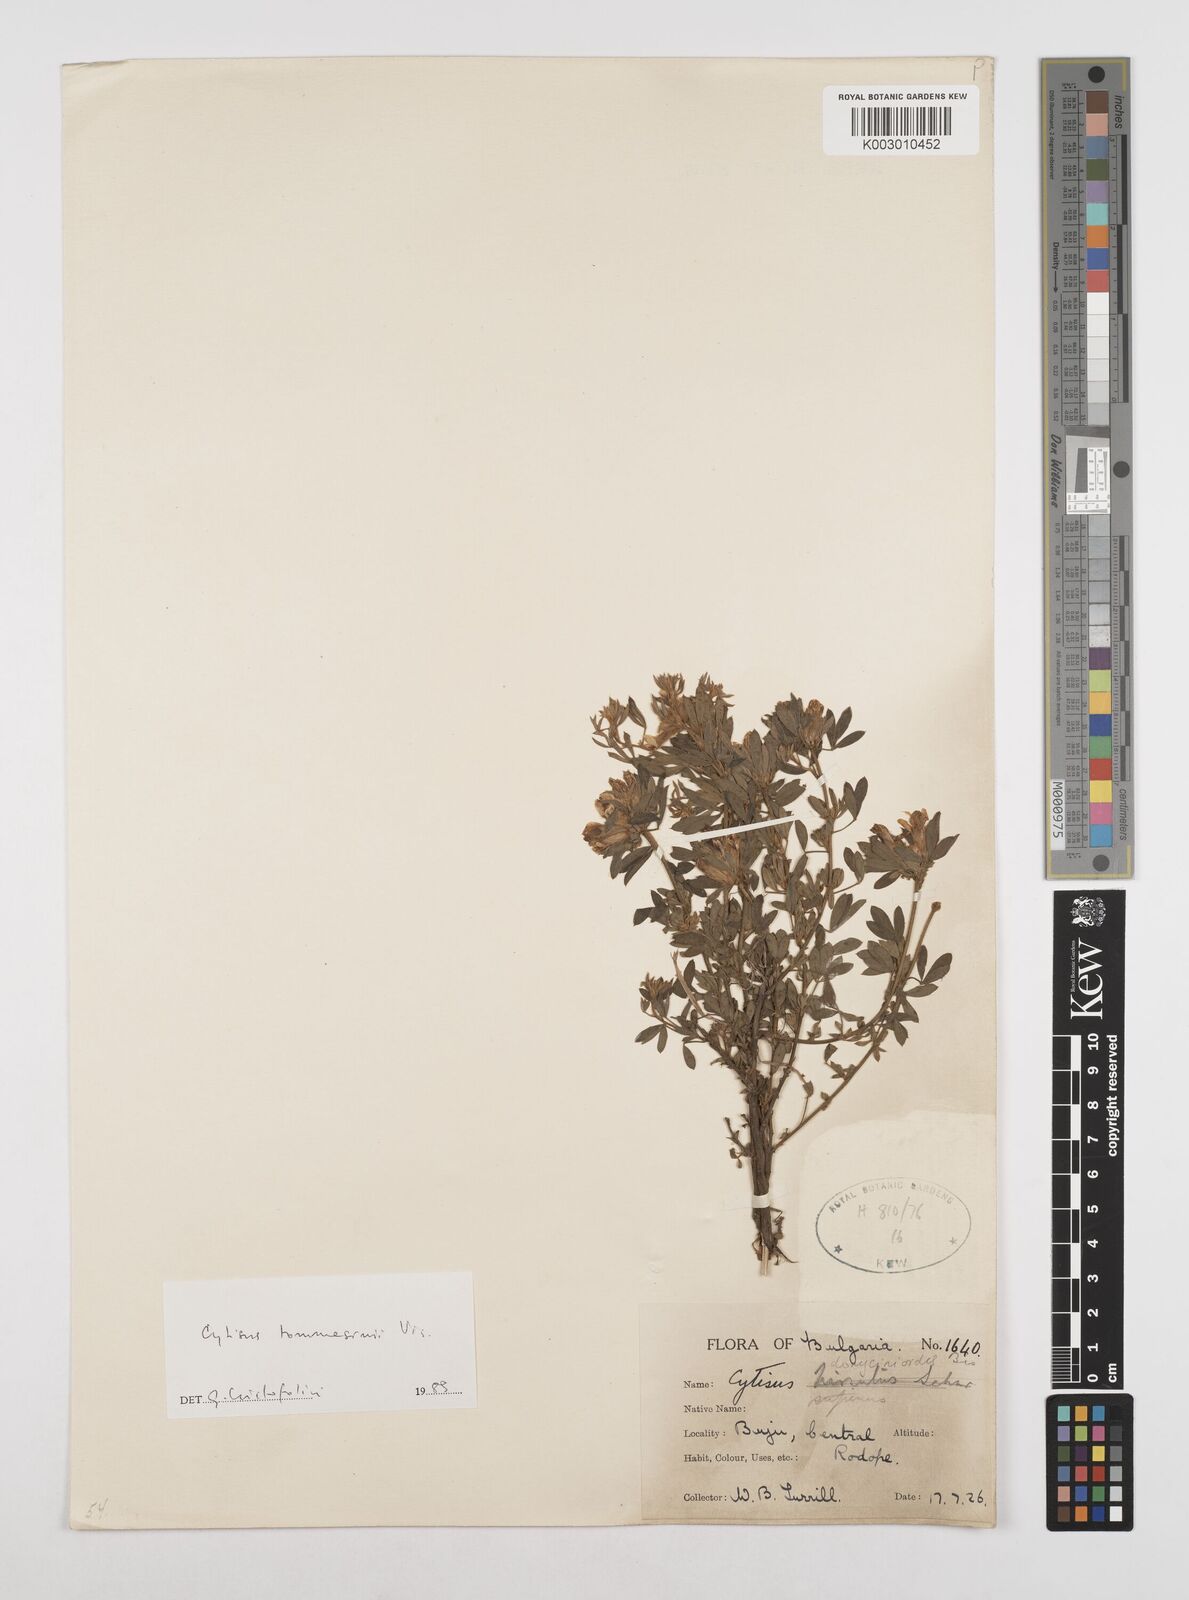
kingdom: Plantae
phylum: Tracheophyta
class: Magnoliopsida
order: Fabales
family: Fabaceae
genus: Chamaecytisus
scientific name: Chamaecytisus tommasinii
